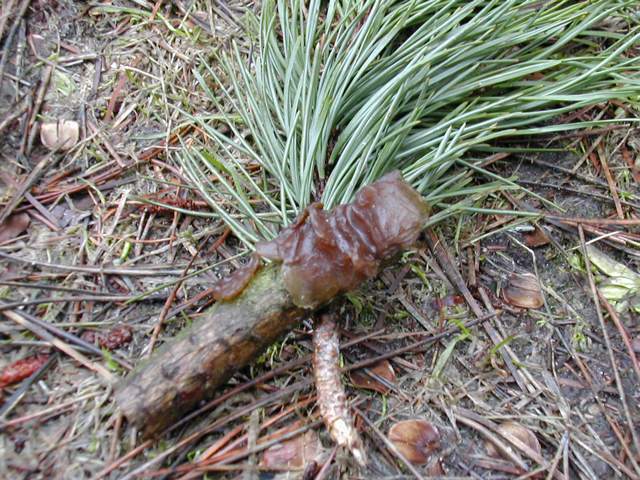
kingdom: Fungi
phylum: Basidiomycota
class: Agaricomycetes
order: Auriculariales
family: Auriculariaceae
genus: Exidia
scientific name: Exidia saccharina
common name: kandis-bævretop
